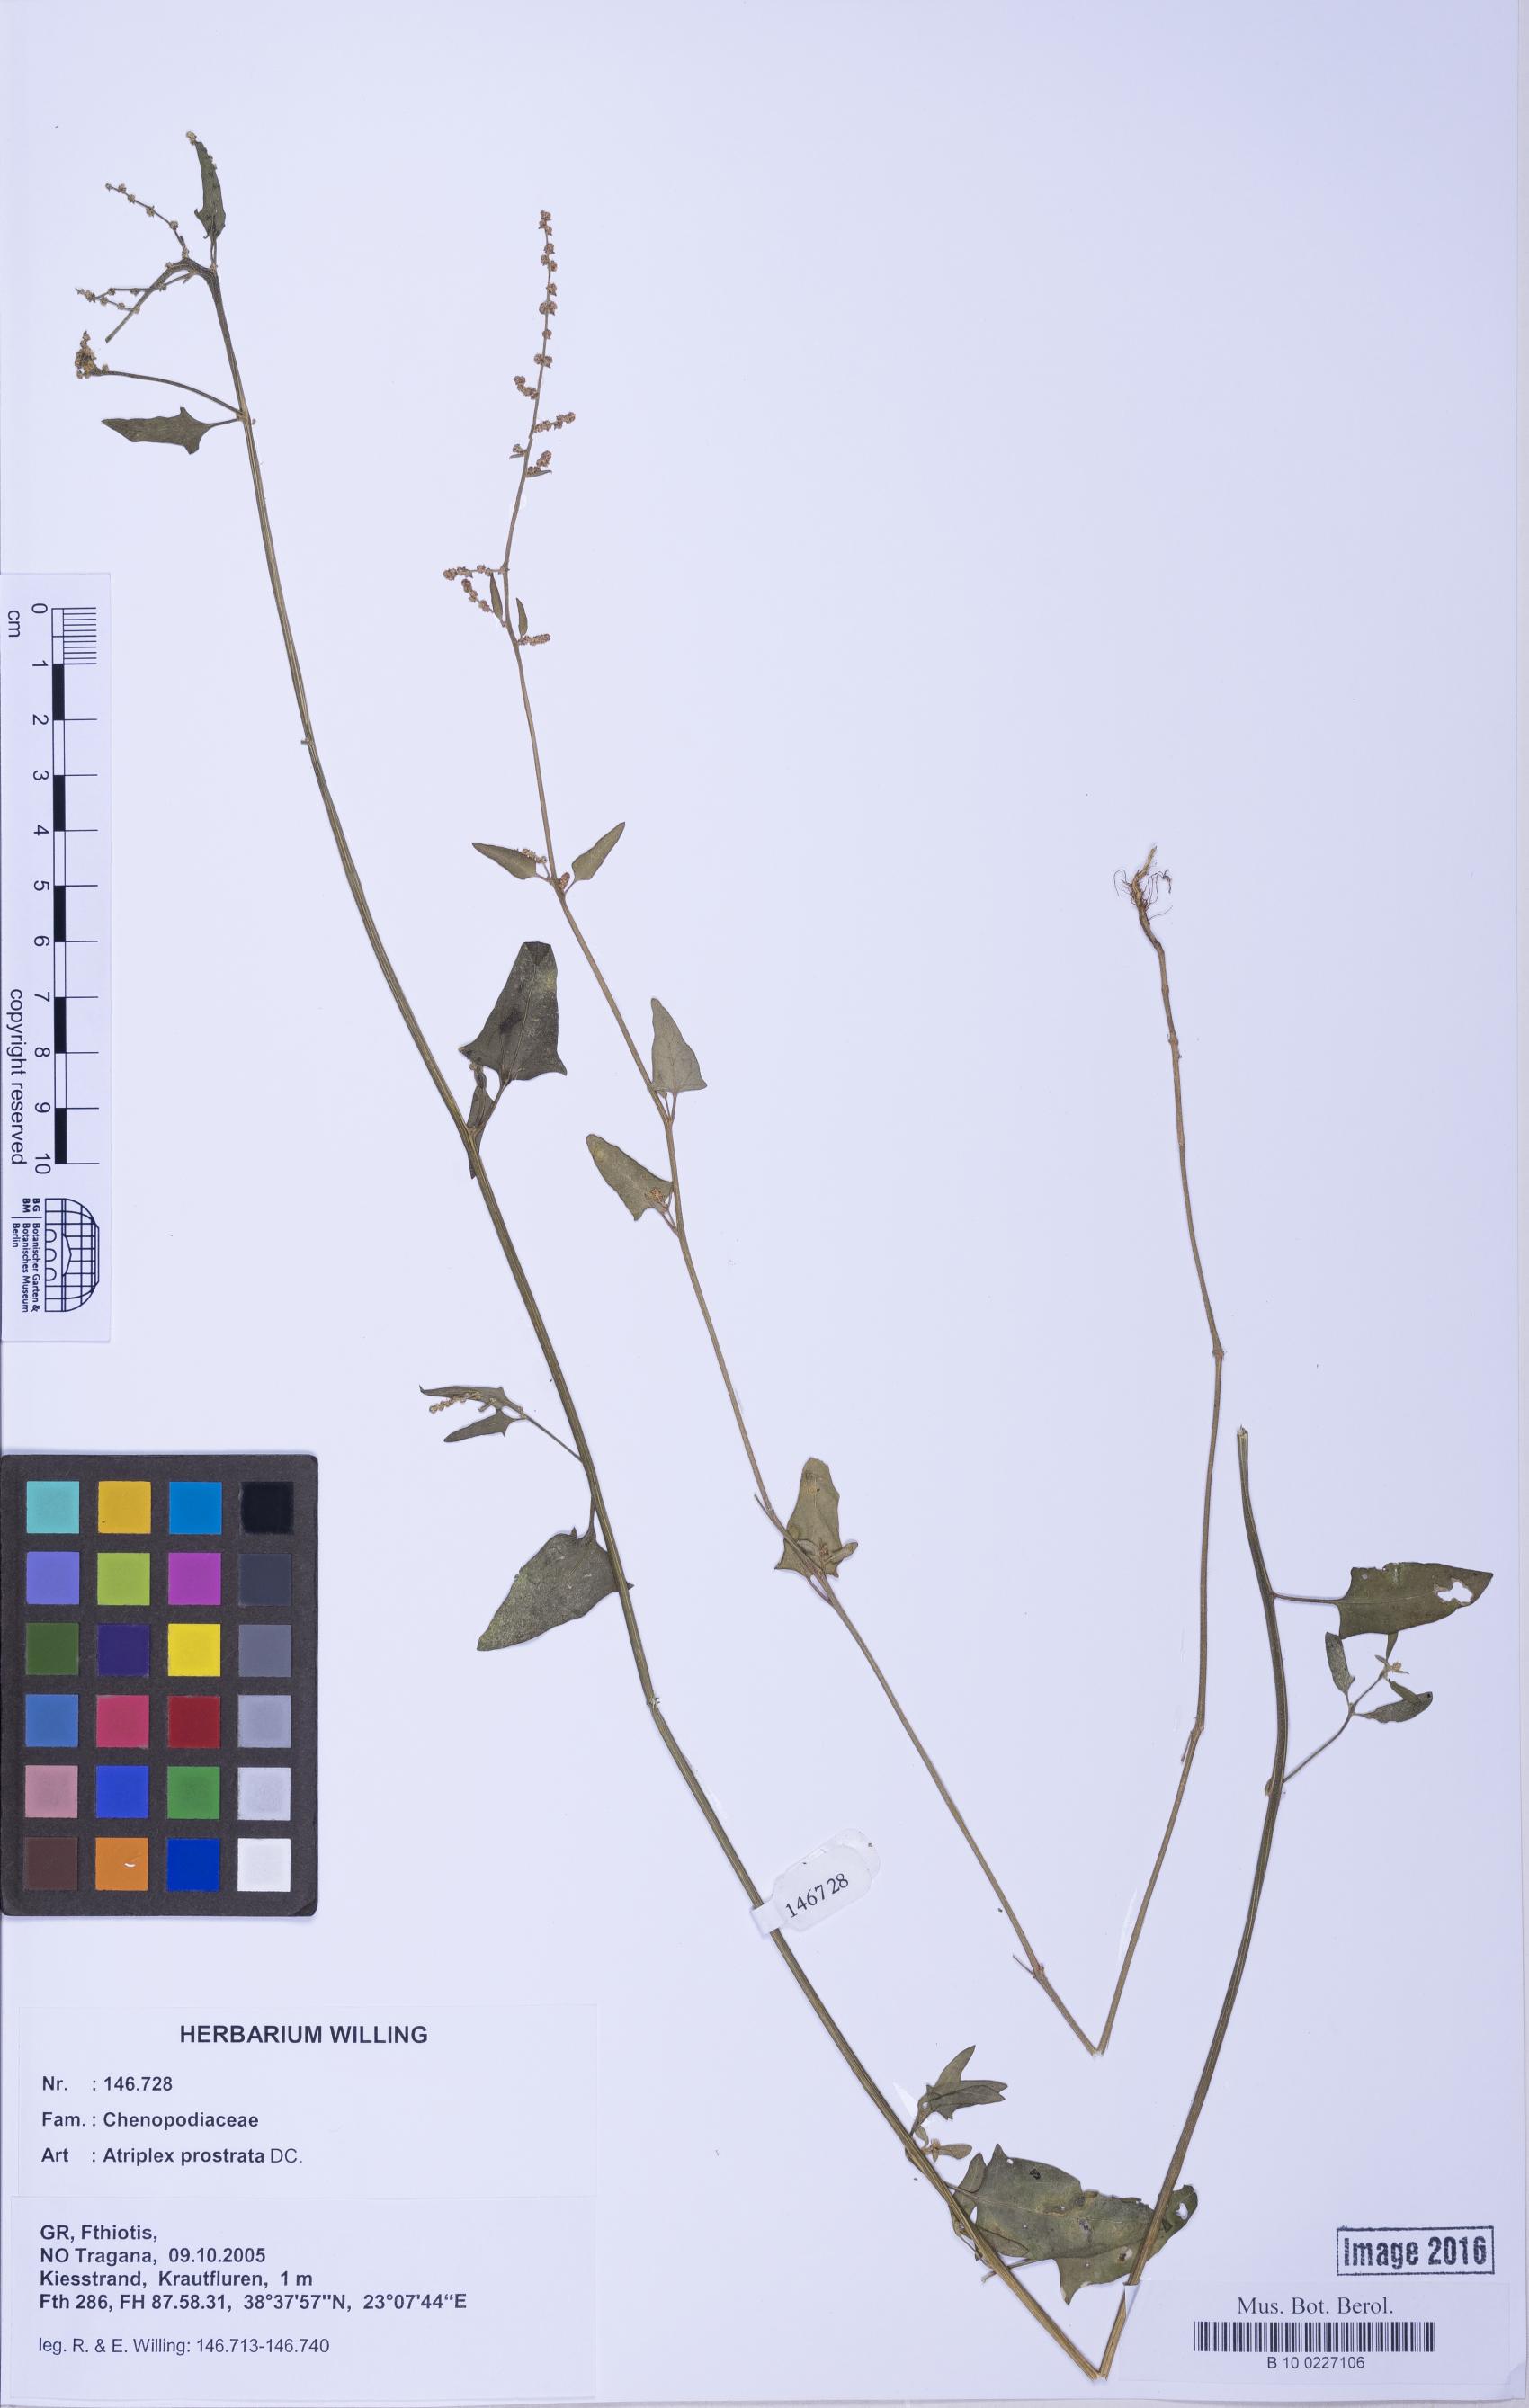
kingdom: Plantae
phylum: Tracheophyta
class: Magnoliopsida
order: Caryophyllales
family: Amaranthaceae
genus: Atriplex
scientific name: Atriplex prostrata
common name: Spear-leaved orache
